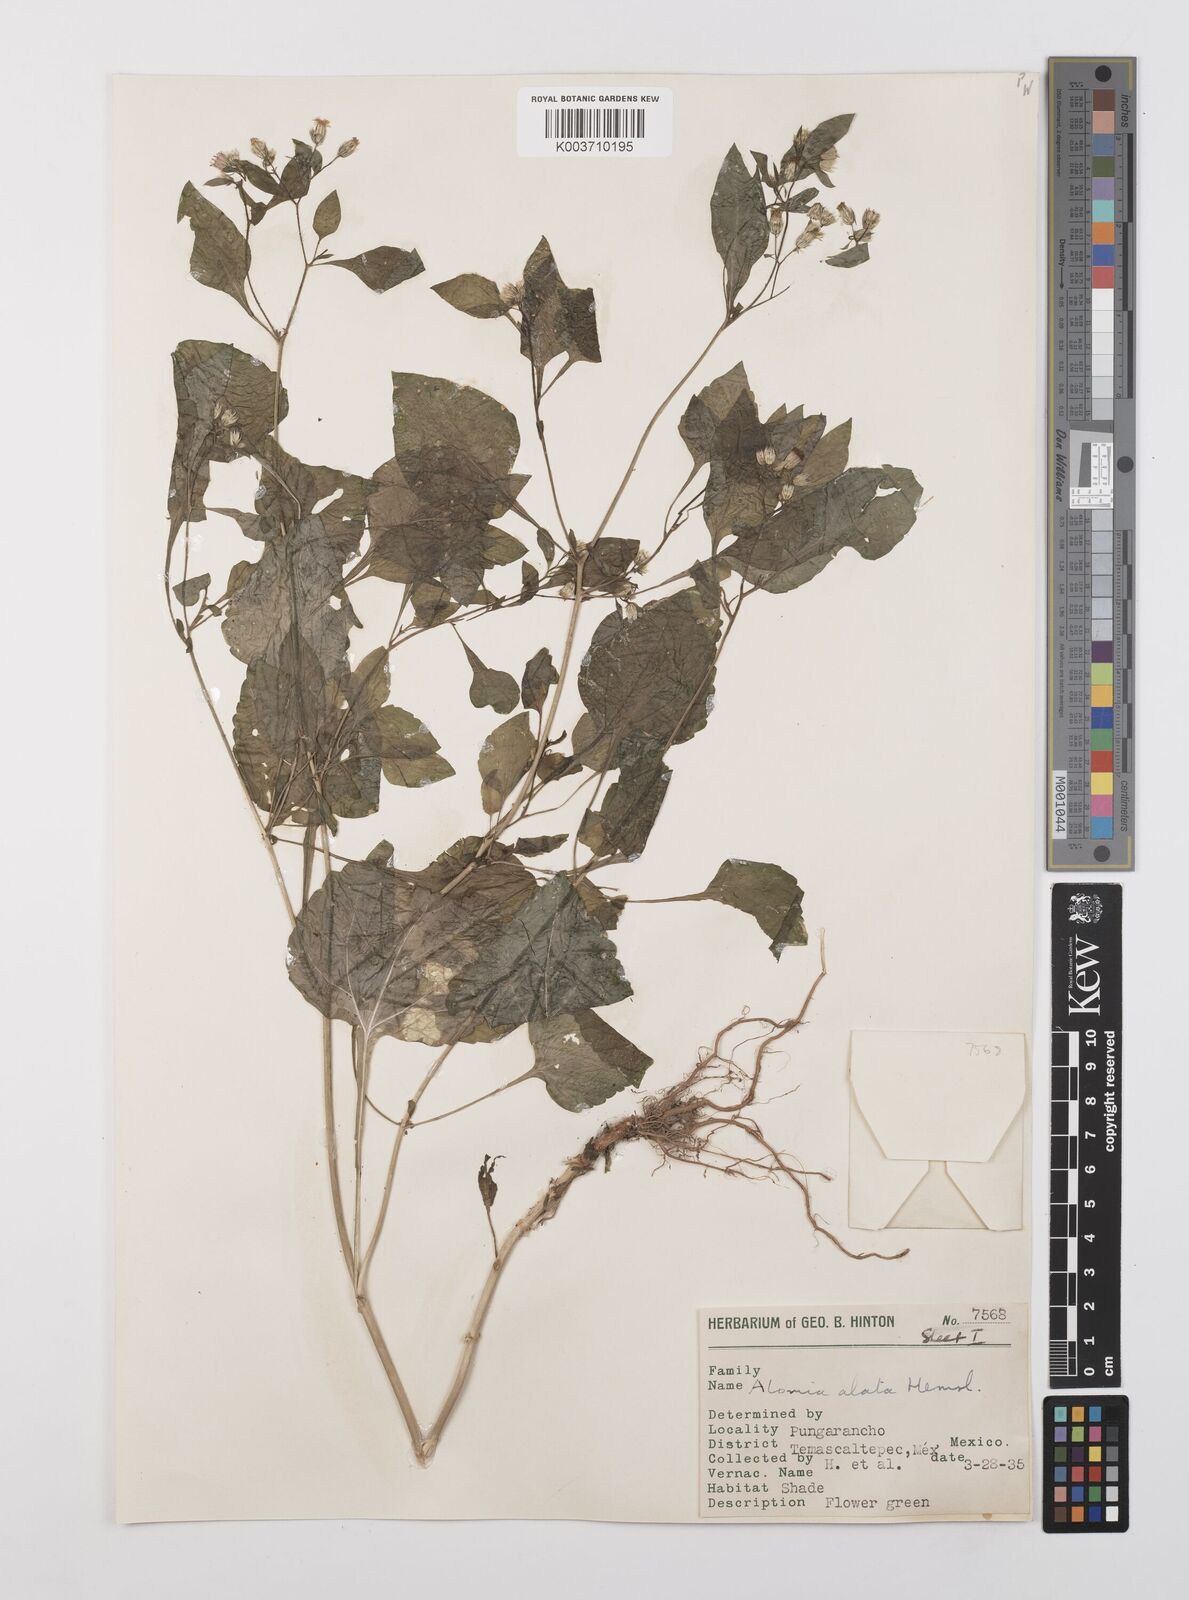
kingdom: Plantae
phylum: Tracheophyta
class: Magnoliopsida
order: Asterales
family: Asteraceae
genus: Alomia
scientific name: Alomia alata
